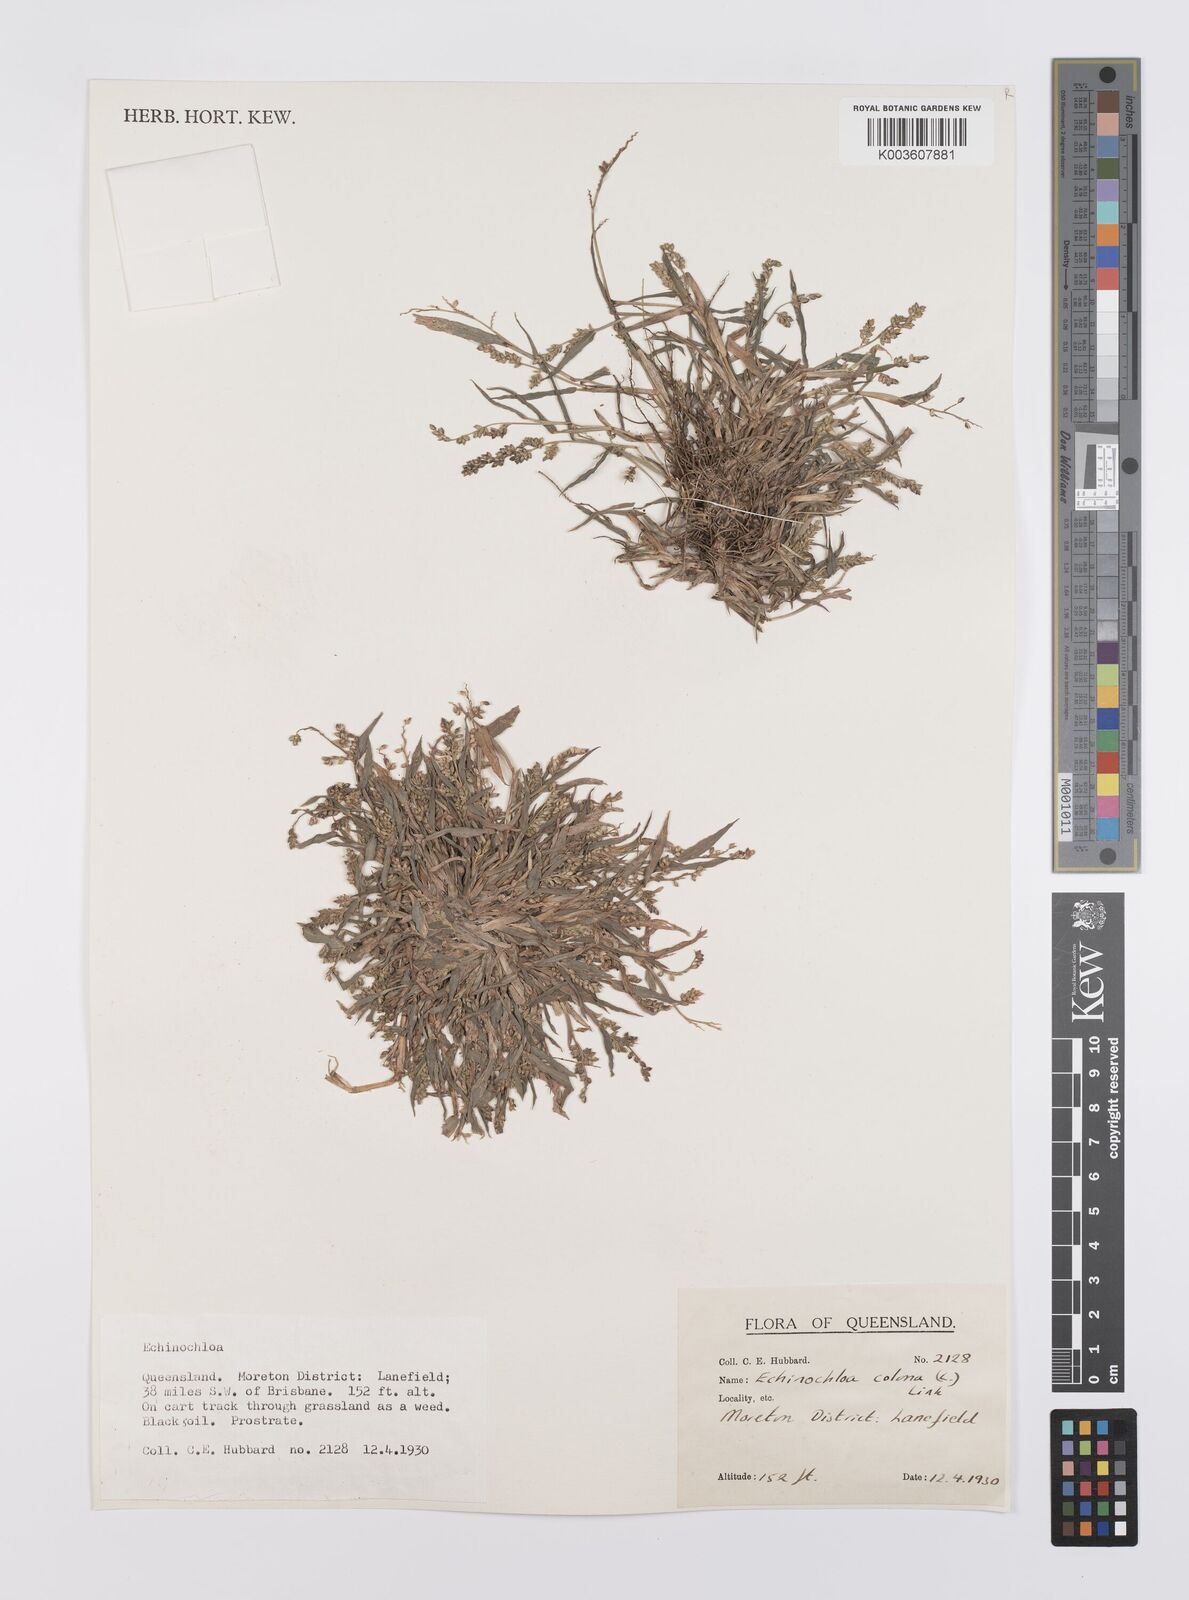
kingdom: Plantae
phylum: Tracheophyta
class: Liliopsida
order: Poales
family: Poaceae
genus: Echinochloa
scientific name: Echinochloa colonum
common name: Jungle rice
